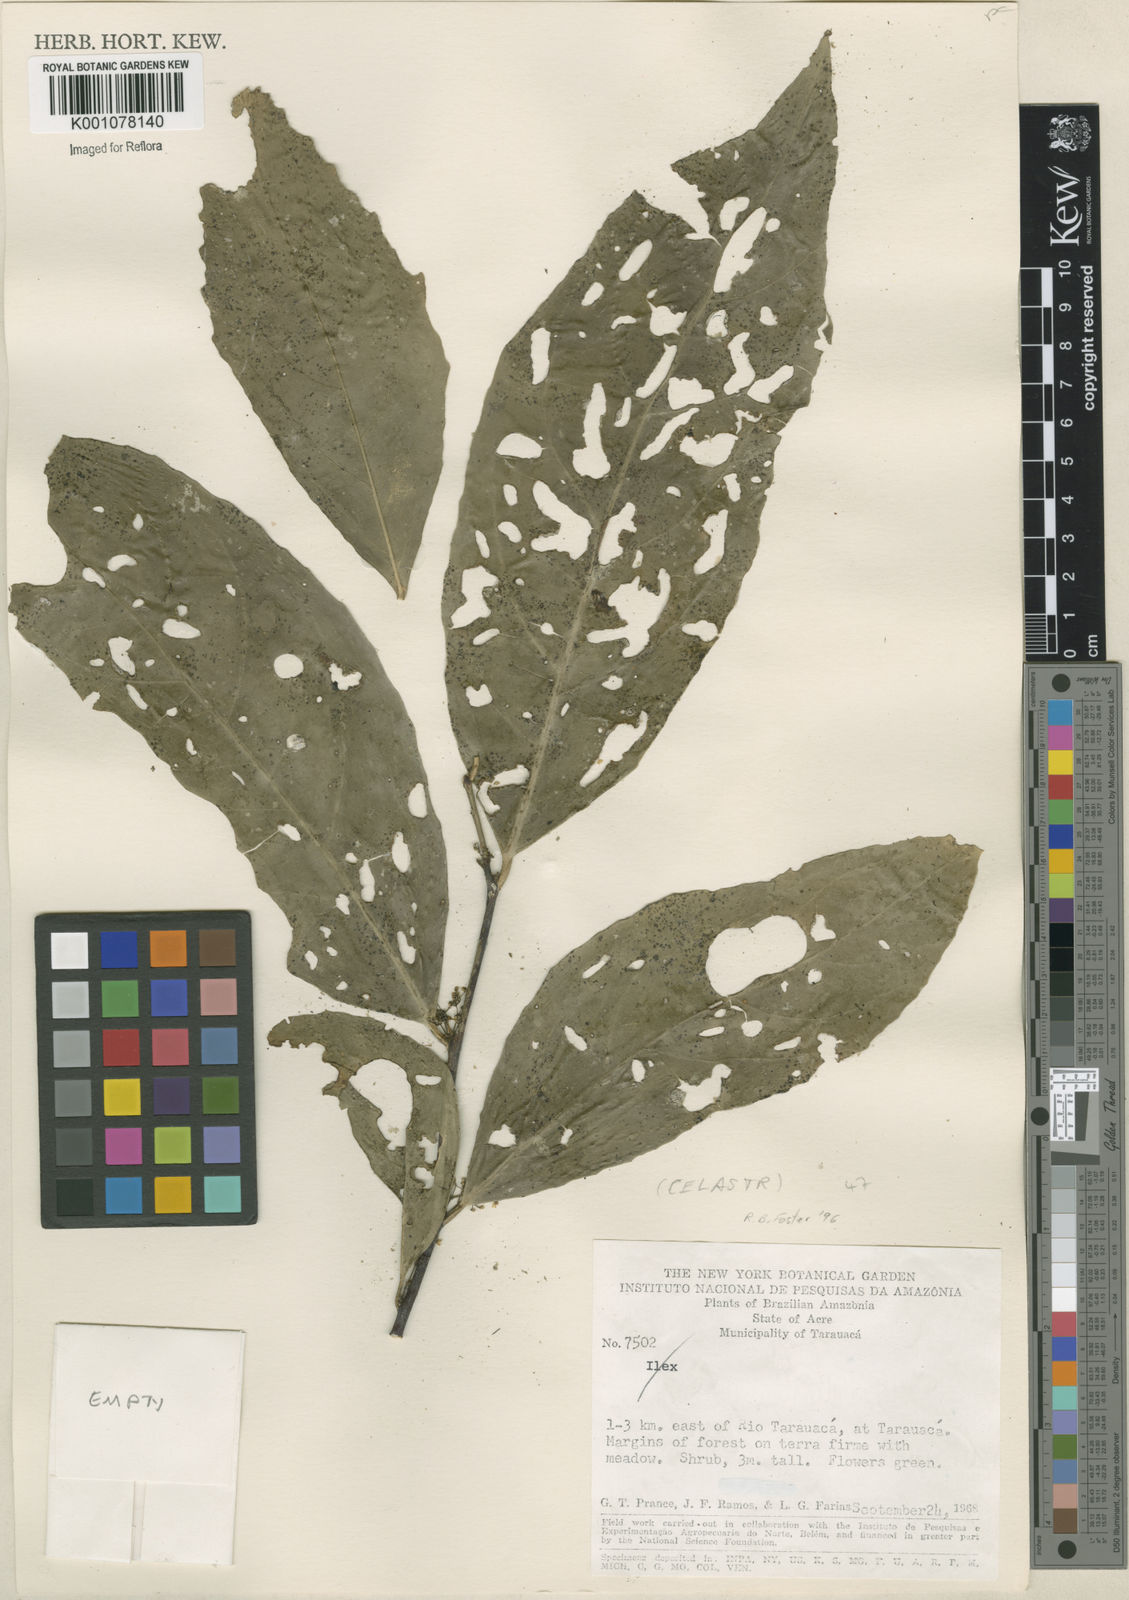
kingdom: Plantae
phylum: Tracheophyta
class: Magnoliopsida
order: Celastrales
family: Celastraceae
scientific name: Celastraceae
